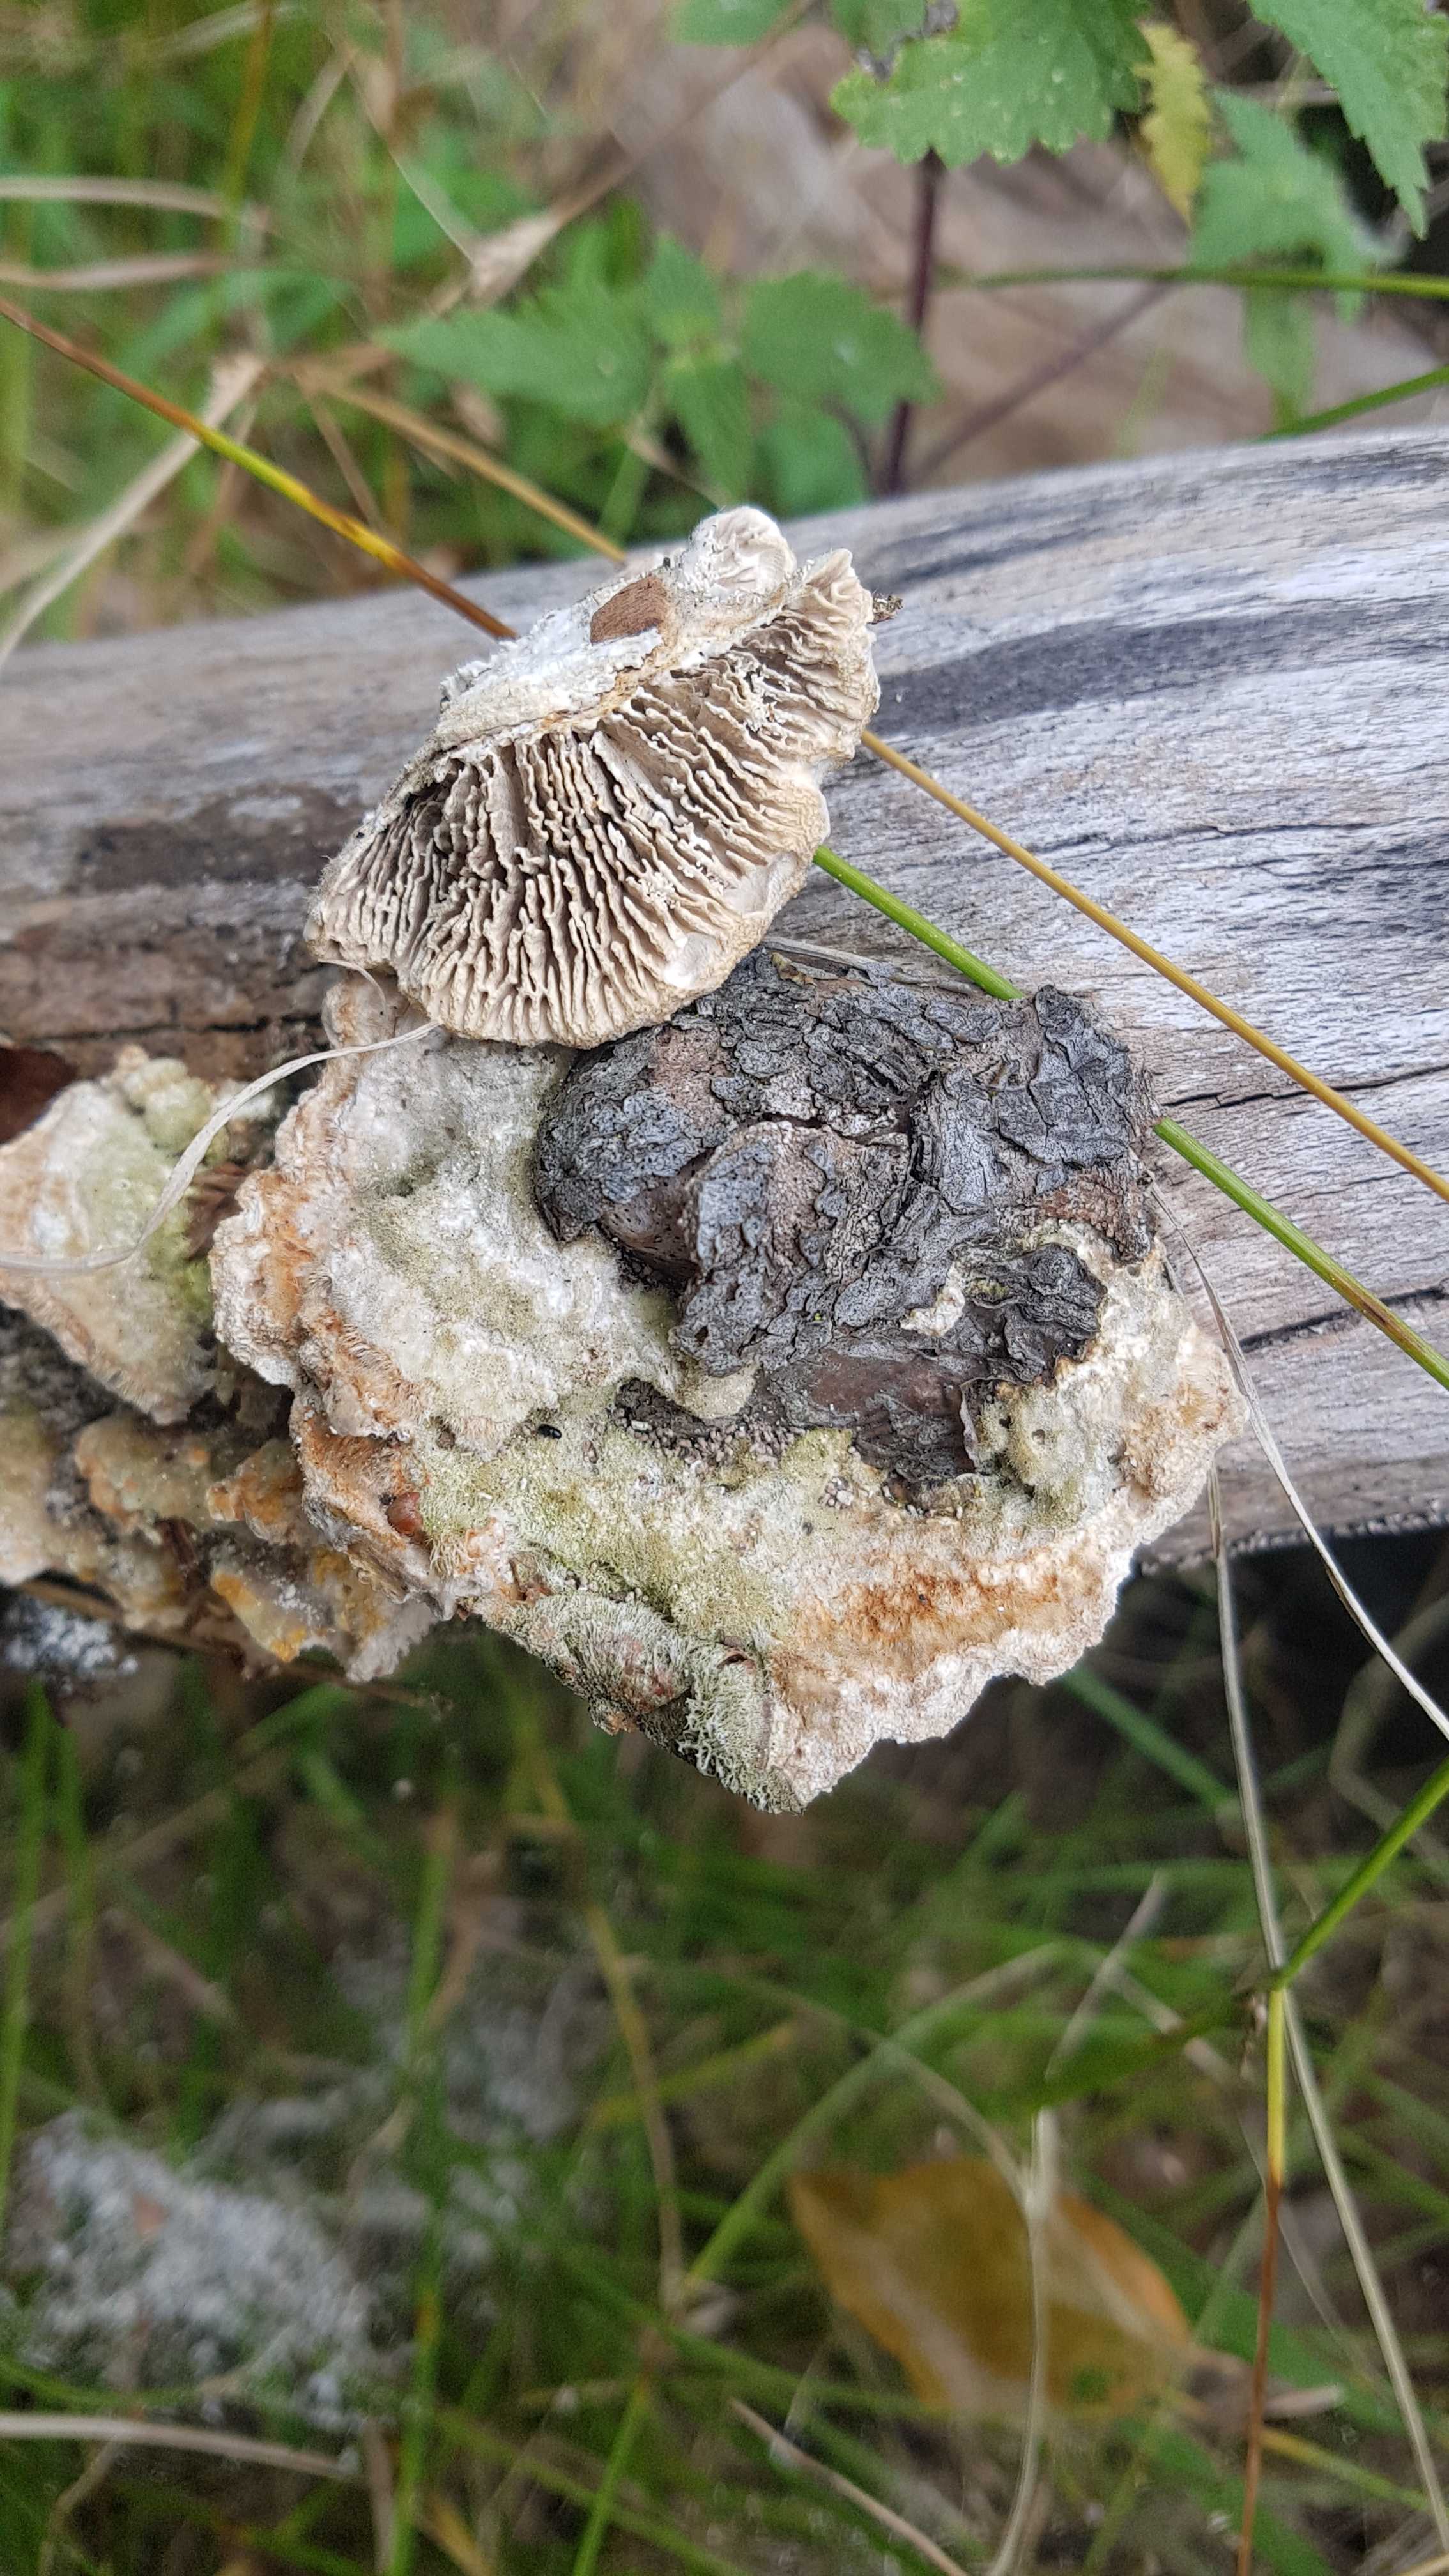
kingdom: Fungi
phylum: Basidiomycota
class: Agaricomycetes
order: Polyporales
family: Polyporaceae
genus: Lenzites
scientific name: Lenzites betulinus
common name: birke-læderporesvamp
